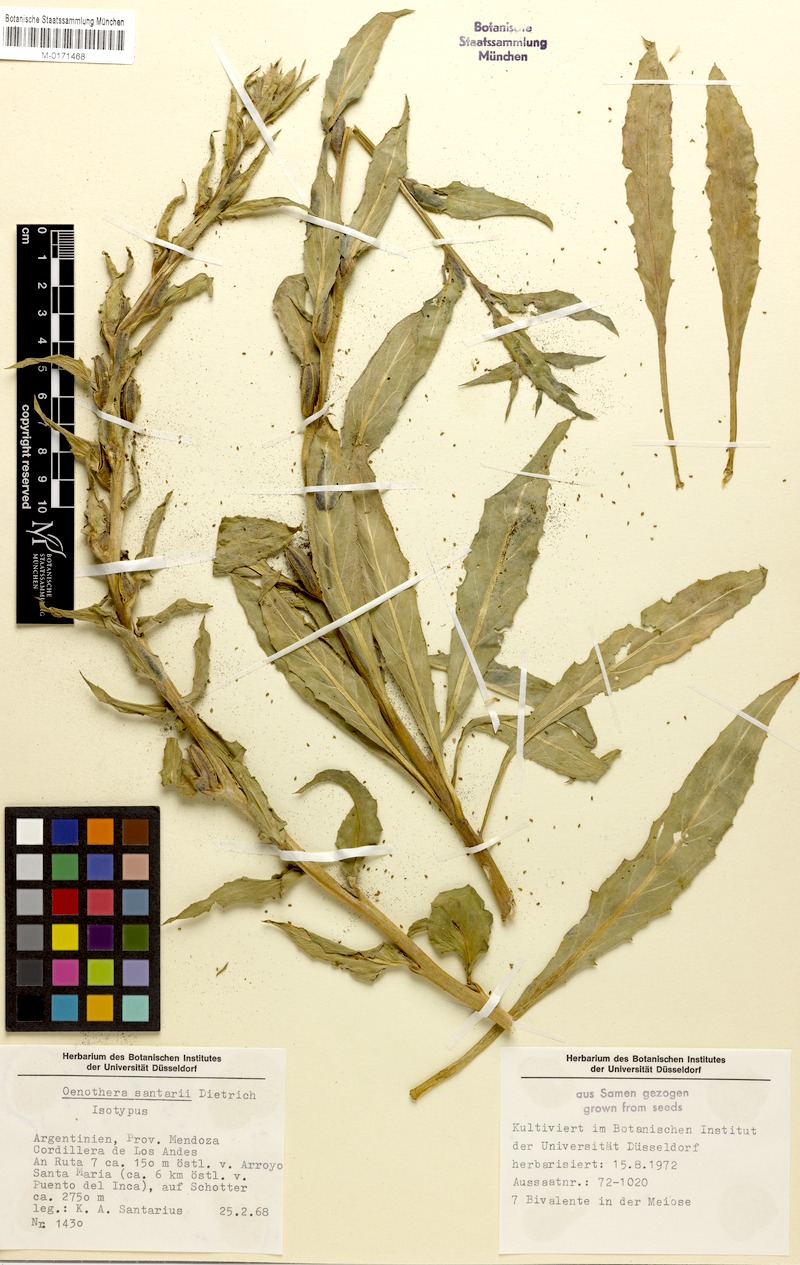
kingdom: Plantae
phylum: Tracheophyta
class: Magnoliopsida
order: Myrtales
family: Onagraceae
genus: Oenothera
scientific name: Oenothera santarii
